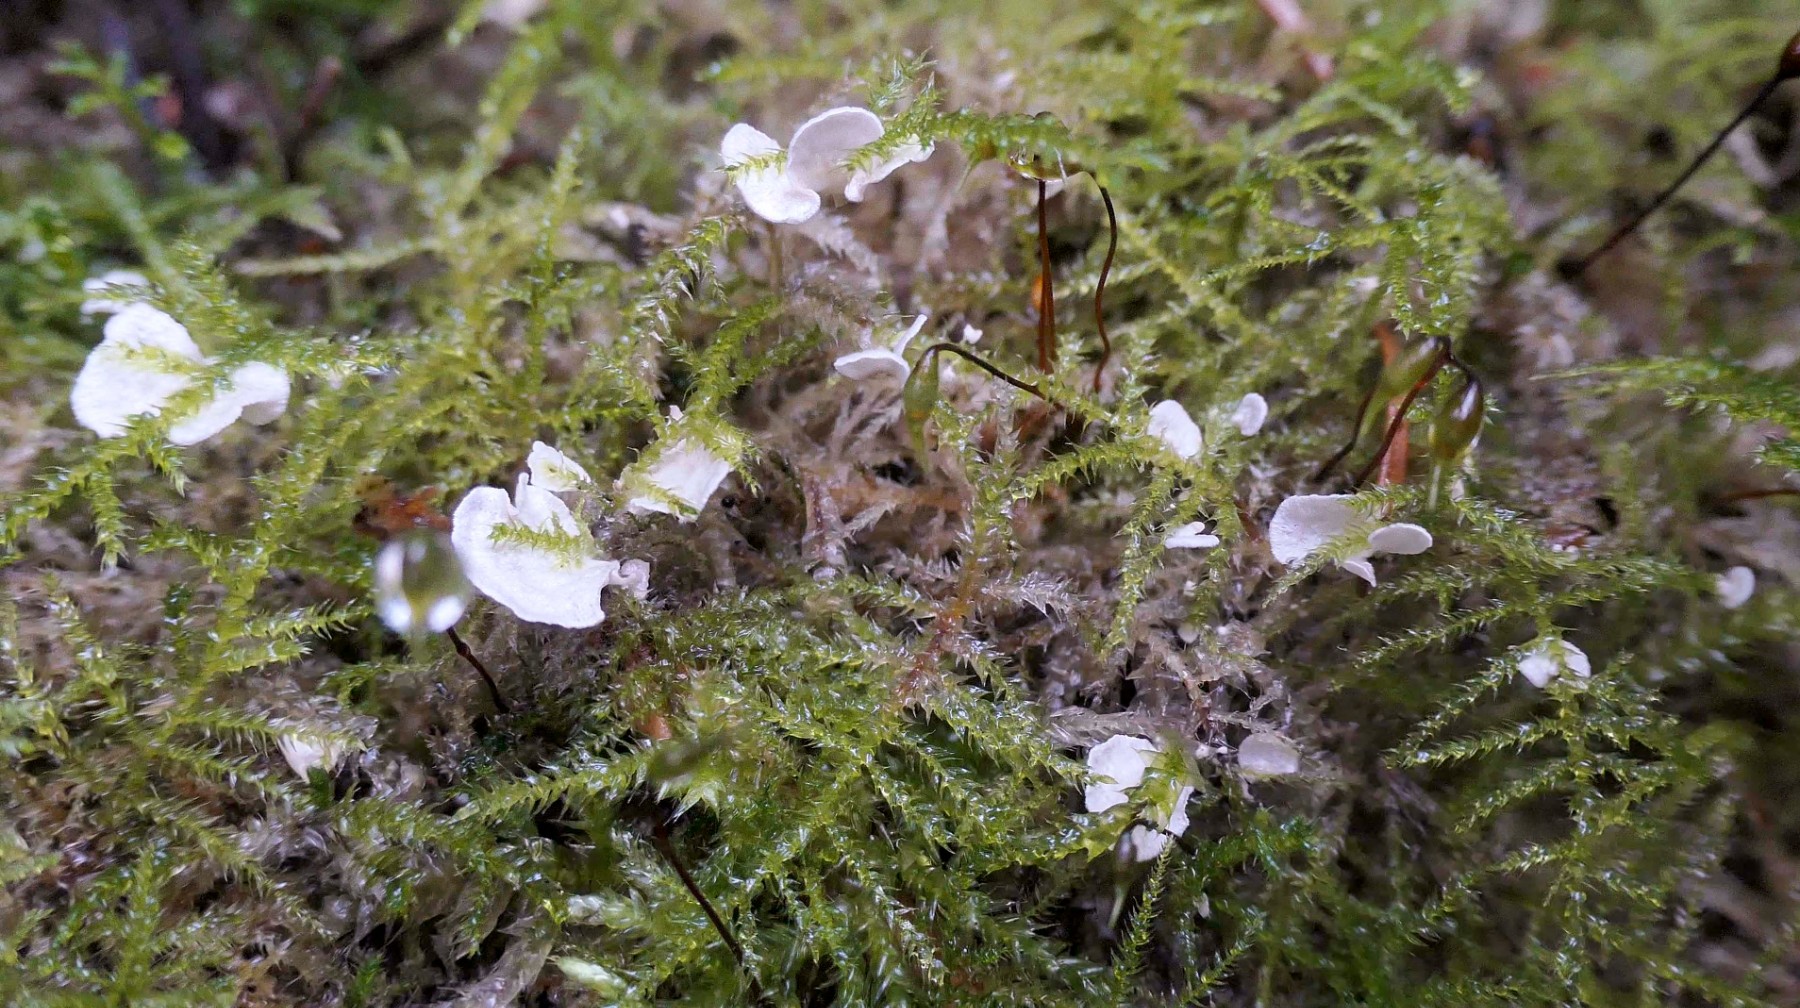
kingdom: Fungi
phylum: Basidiomycota
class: Agaricomycetes
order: Agaricales
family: Hygrophoraceae
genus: Arrhenia
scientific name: Arrhenia retiruga
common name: lille fontænehat
